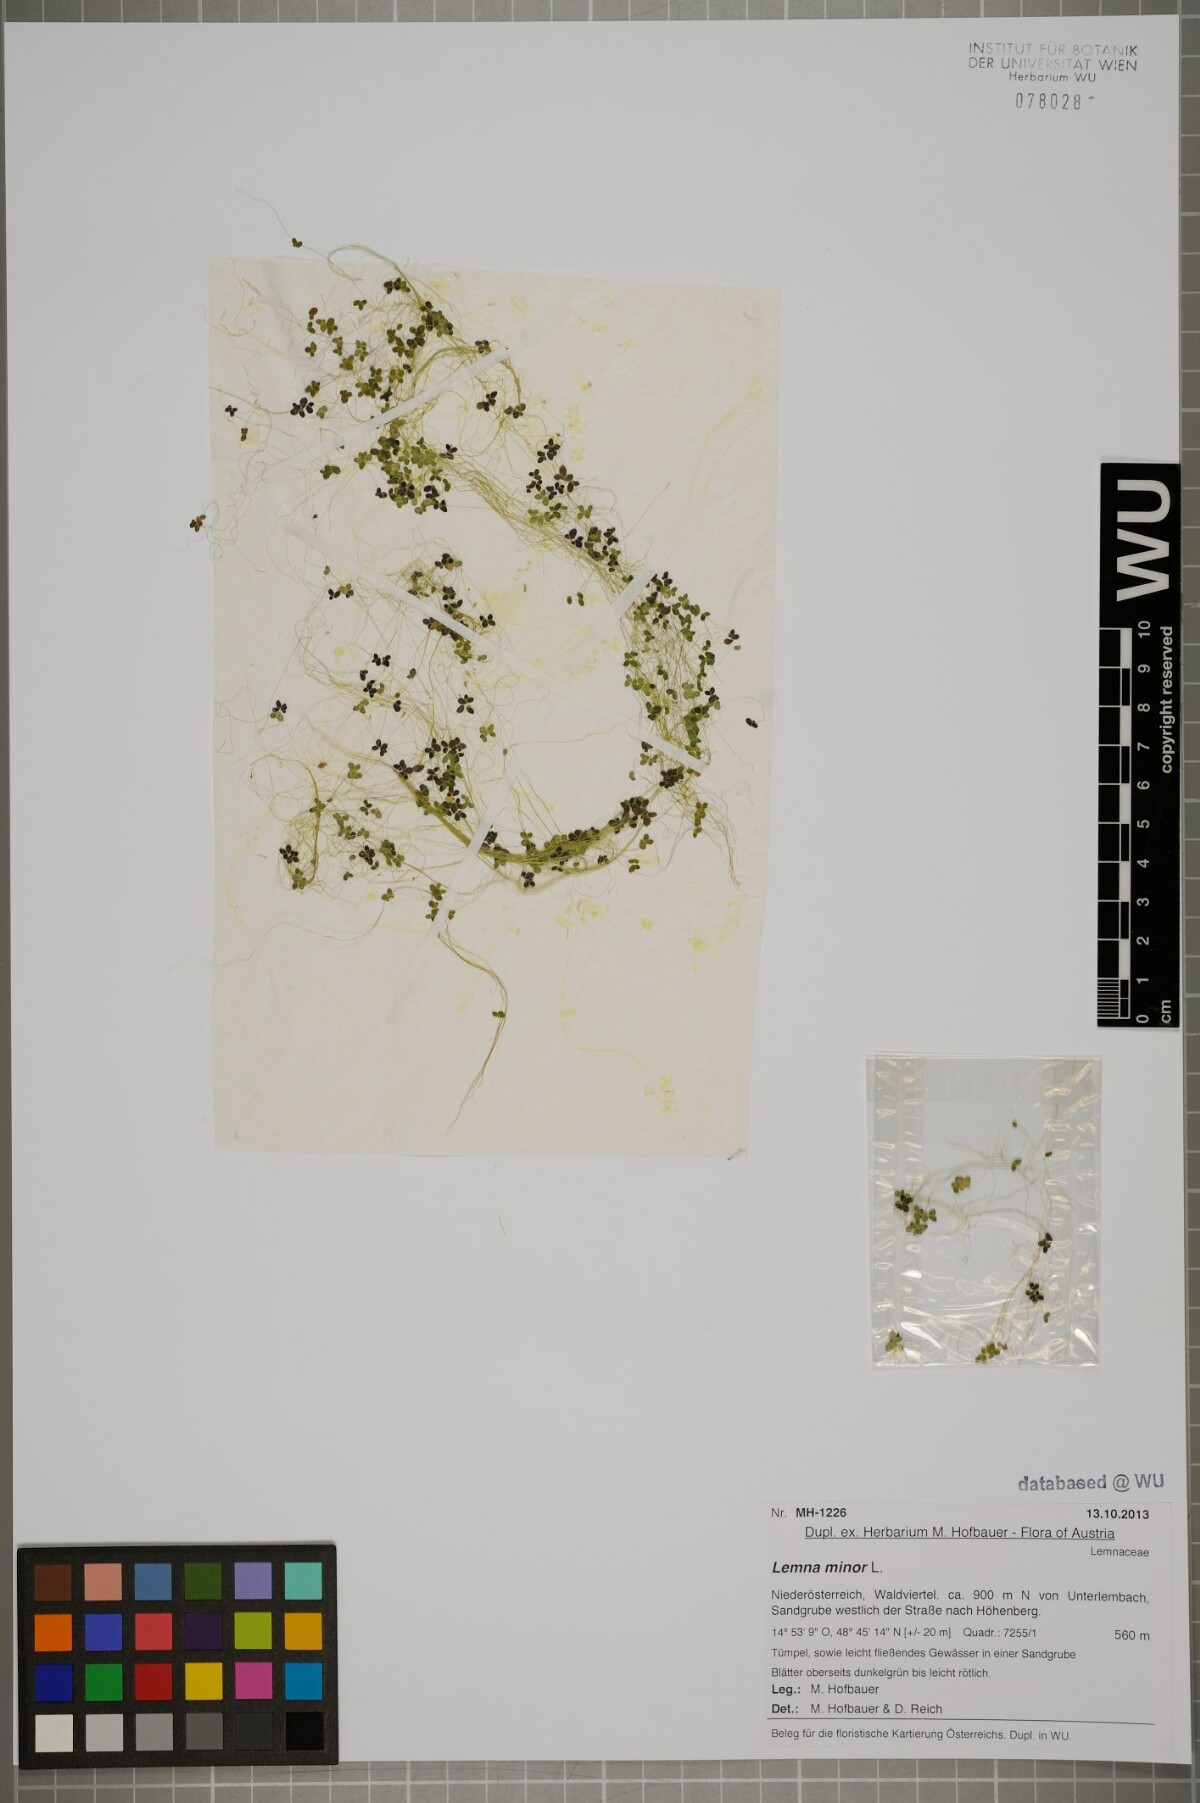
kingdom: Plantae
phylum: Tracheophyta
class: Liliopsida
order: Alismatales
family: Araceae
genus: Lemna
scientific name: Lemna minor
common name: Common duckweed
